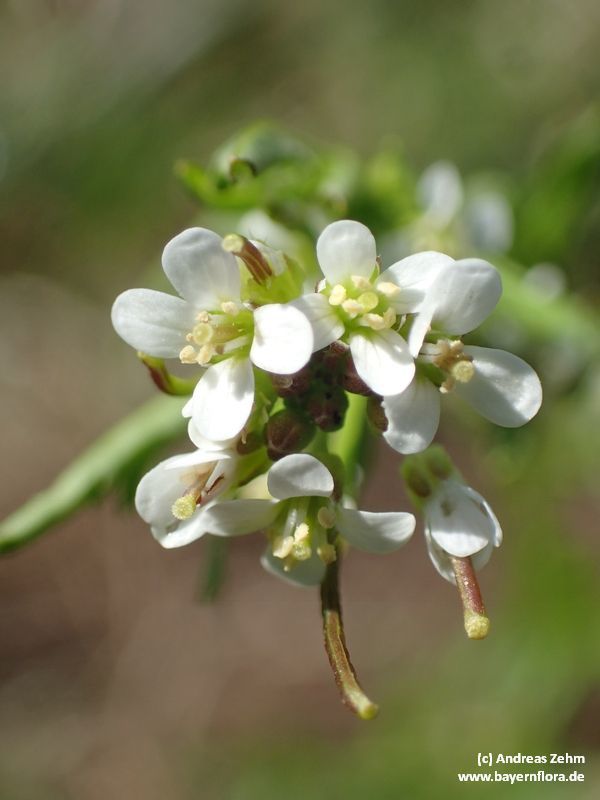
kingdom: Plantae
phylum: Tracheophyta
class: Magnoliopsida
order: Brassicales
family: Brassicaceae
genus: Cardamine
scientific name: Cardamine flexuosa
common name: Woodland bittercress
